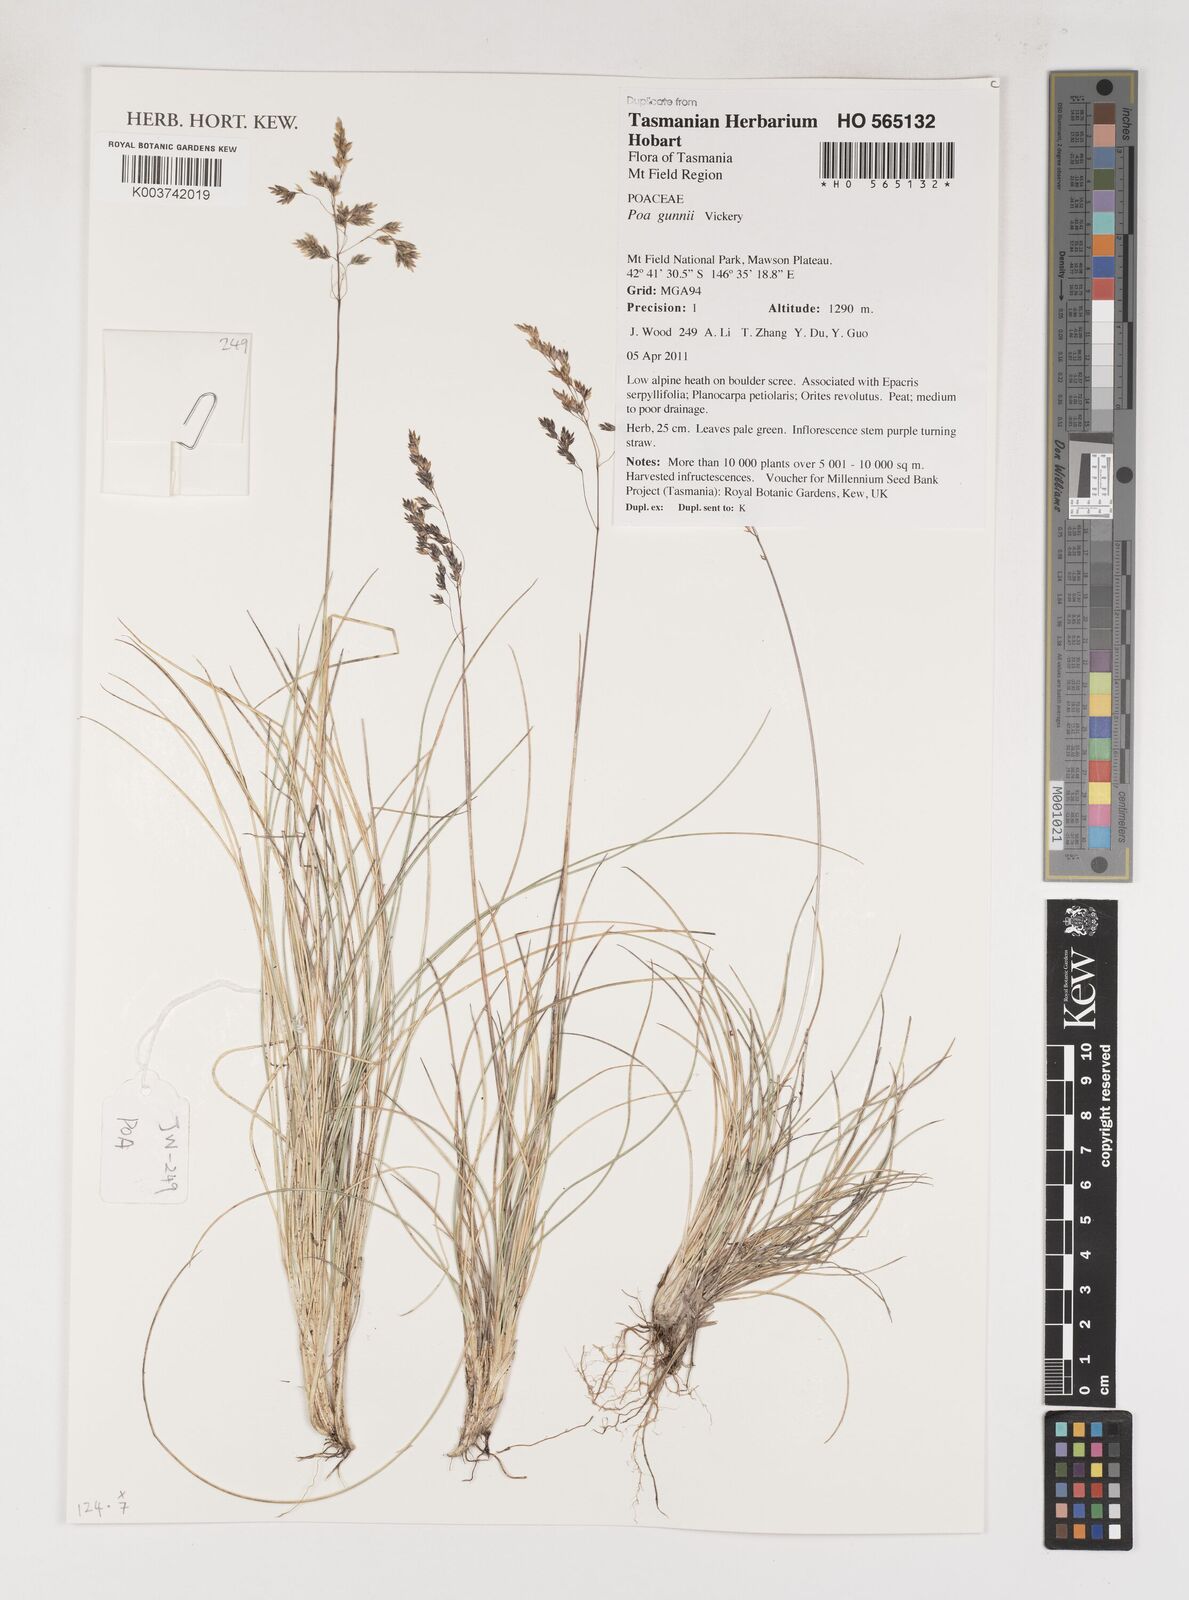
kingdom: Plantae
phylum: Tracheophyta
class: Liliopsida
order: Poales
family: Poaceae
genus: Poa
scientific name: Poa gunnii
